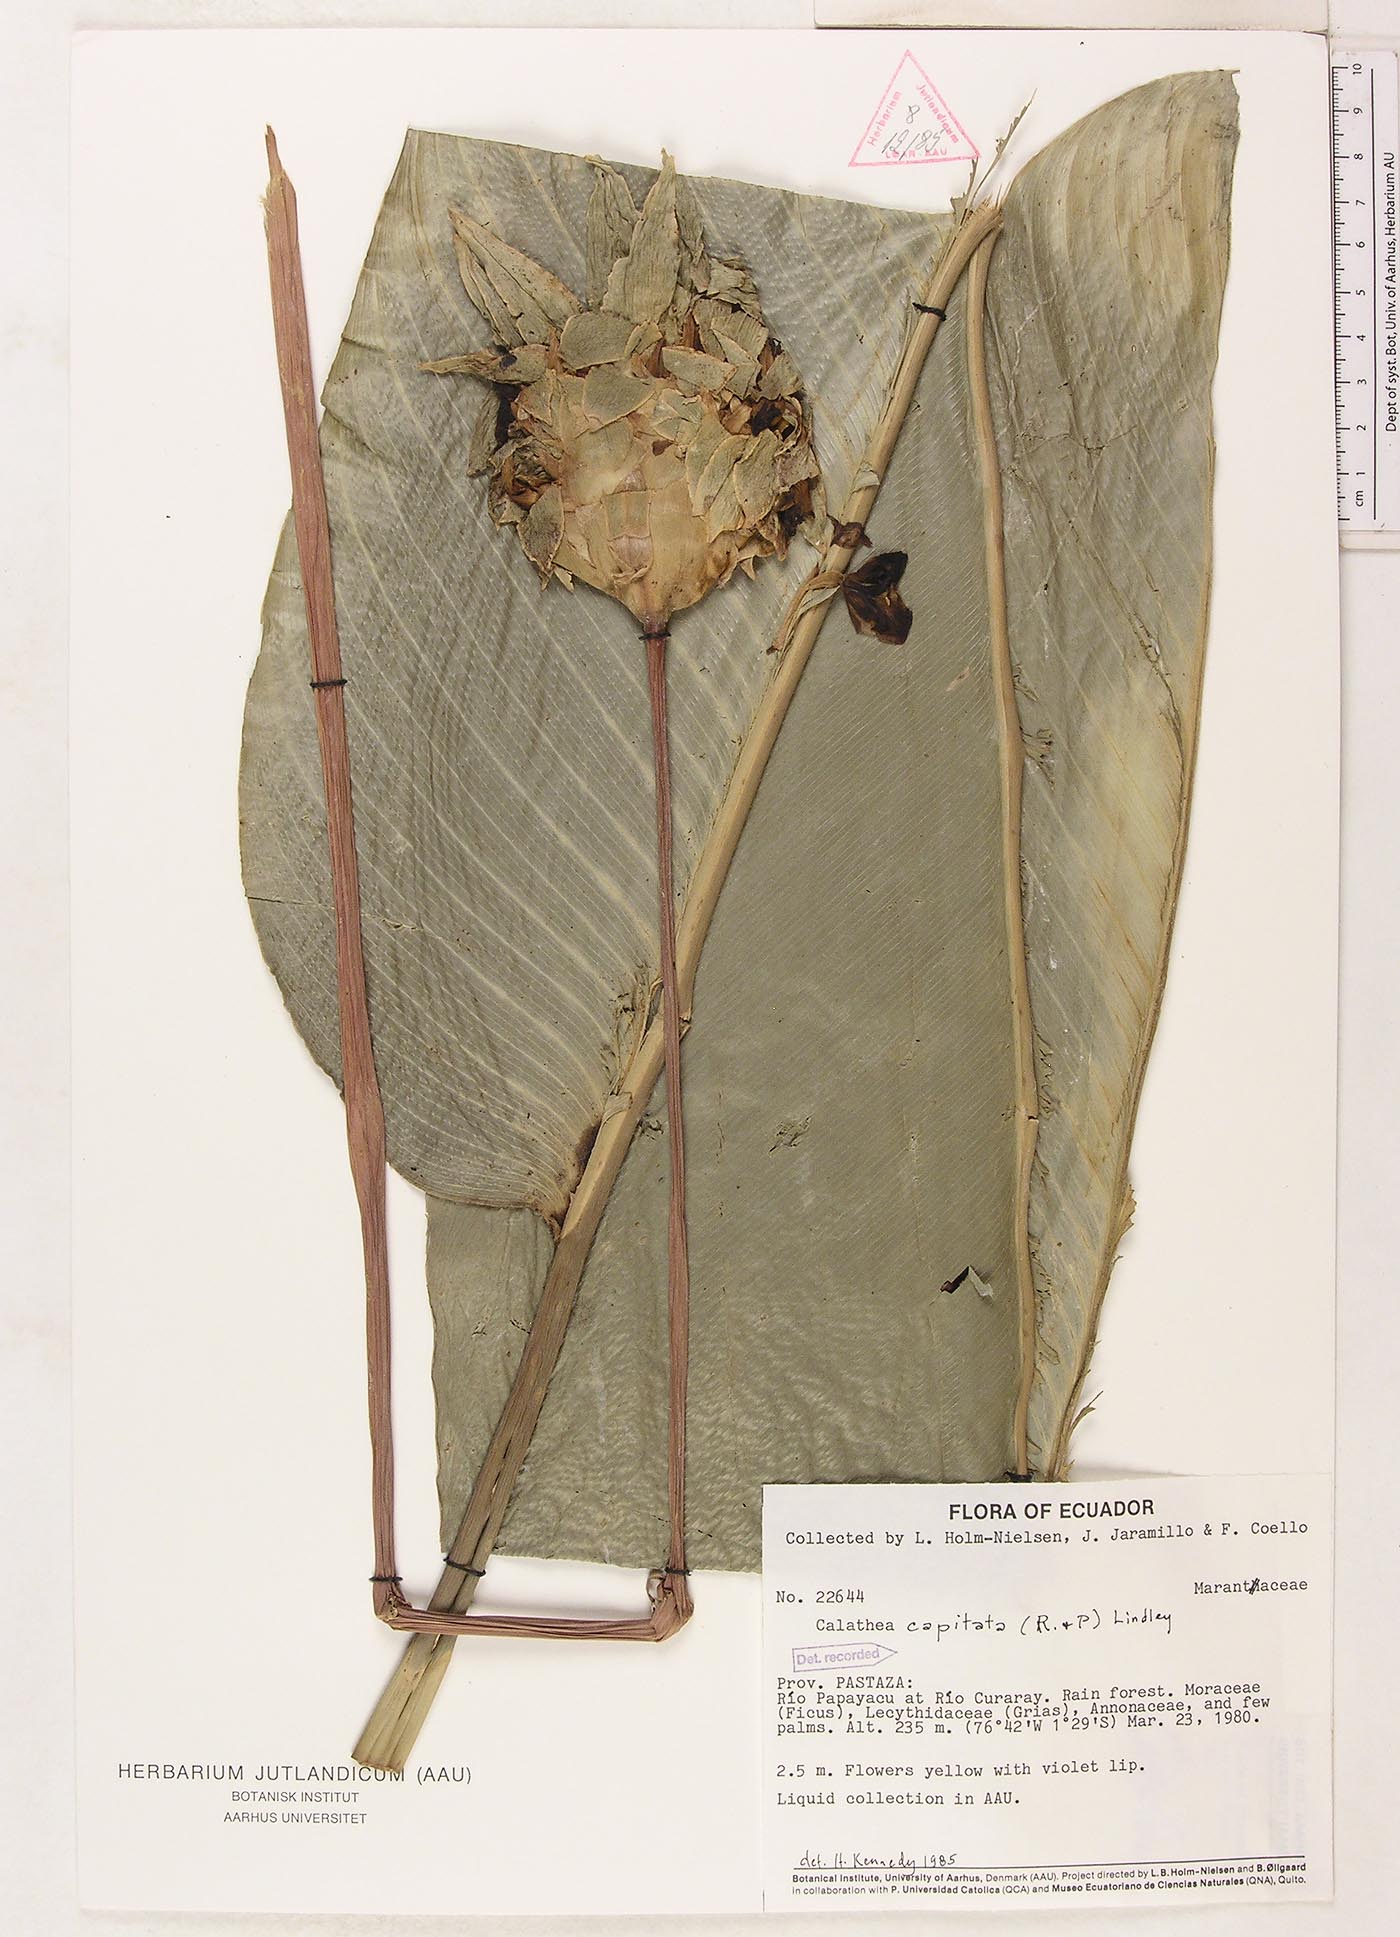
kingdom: Plantae
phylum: Tracheophyta
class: Liliopsida
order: Zingiberales
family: Marantaceae
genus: Goeppertia
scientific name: Goeppertia capitata
